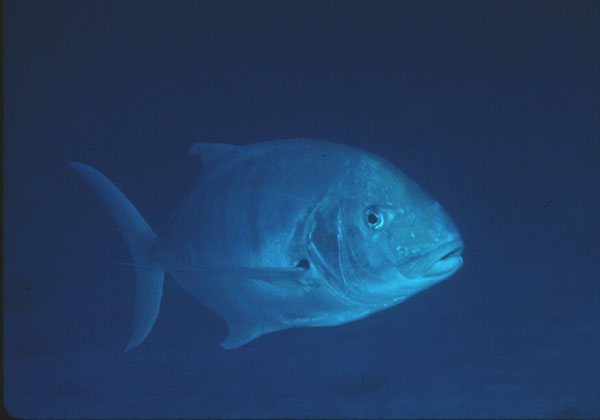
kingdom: Animalia
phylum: Chordata
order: Perciformes
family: Carangidae
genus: Gnathanodon
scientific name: Gnathanodon speciosus
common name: Golden toothless trevally
